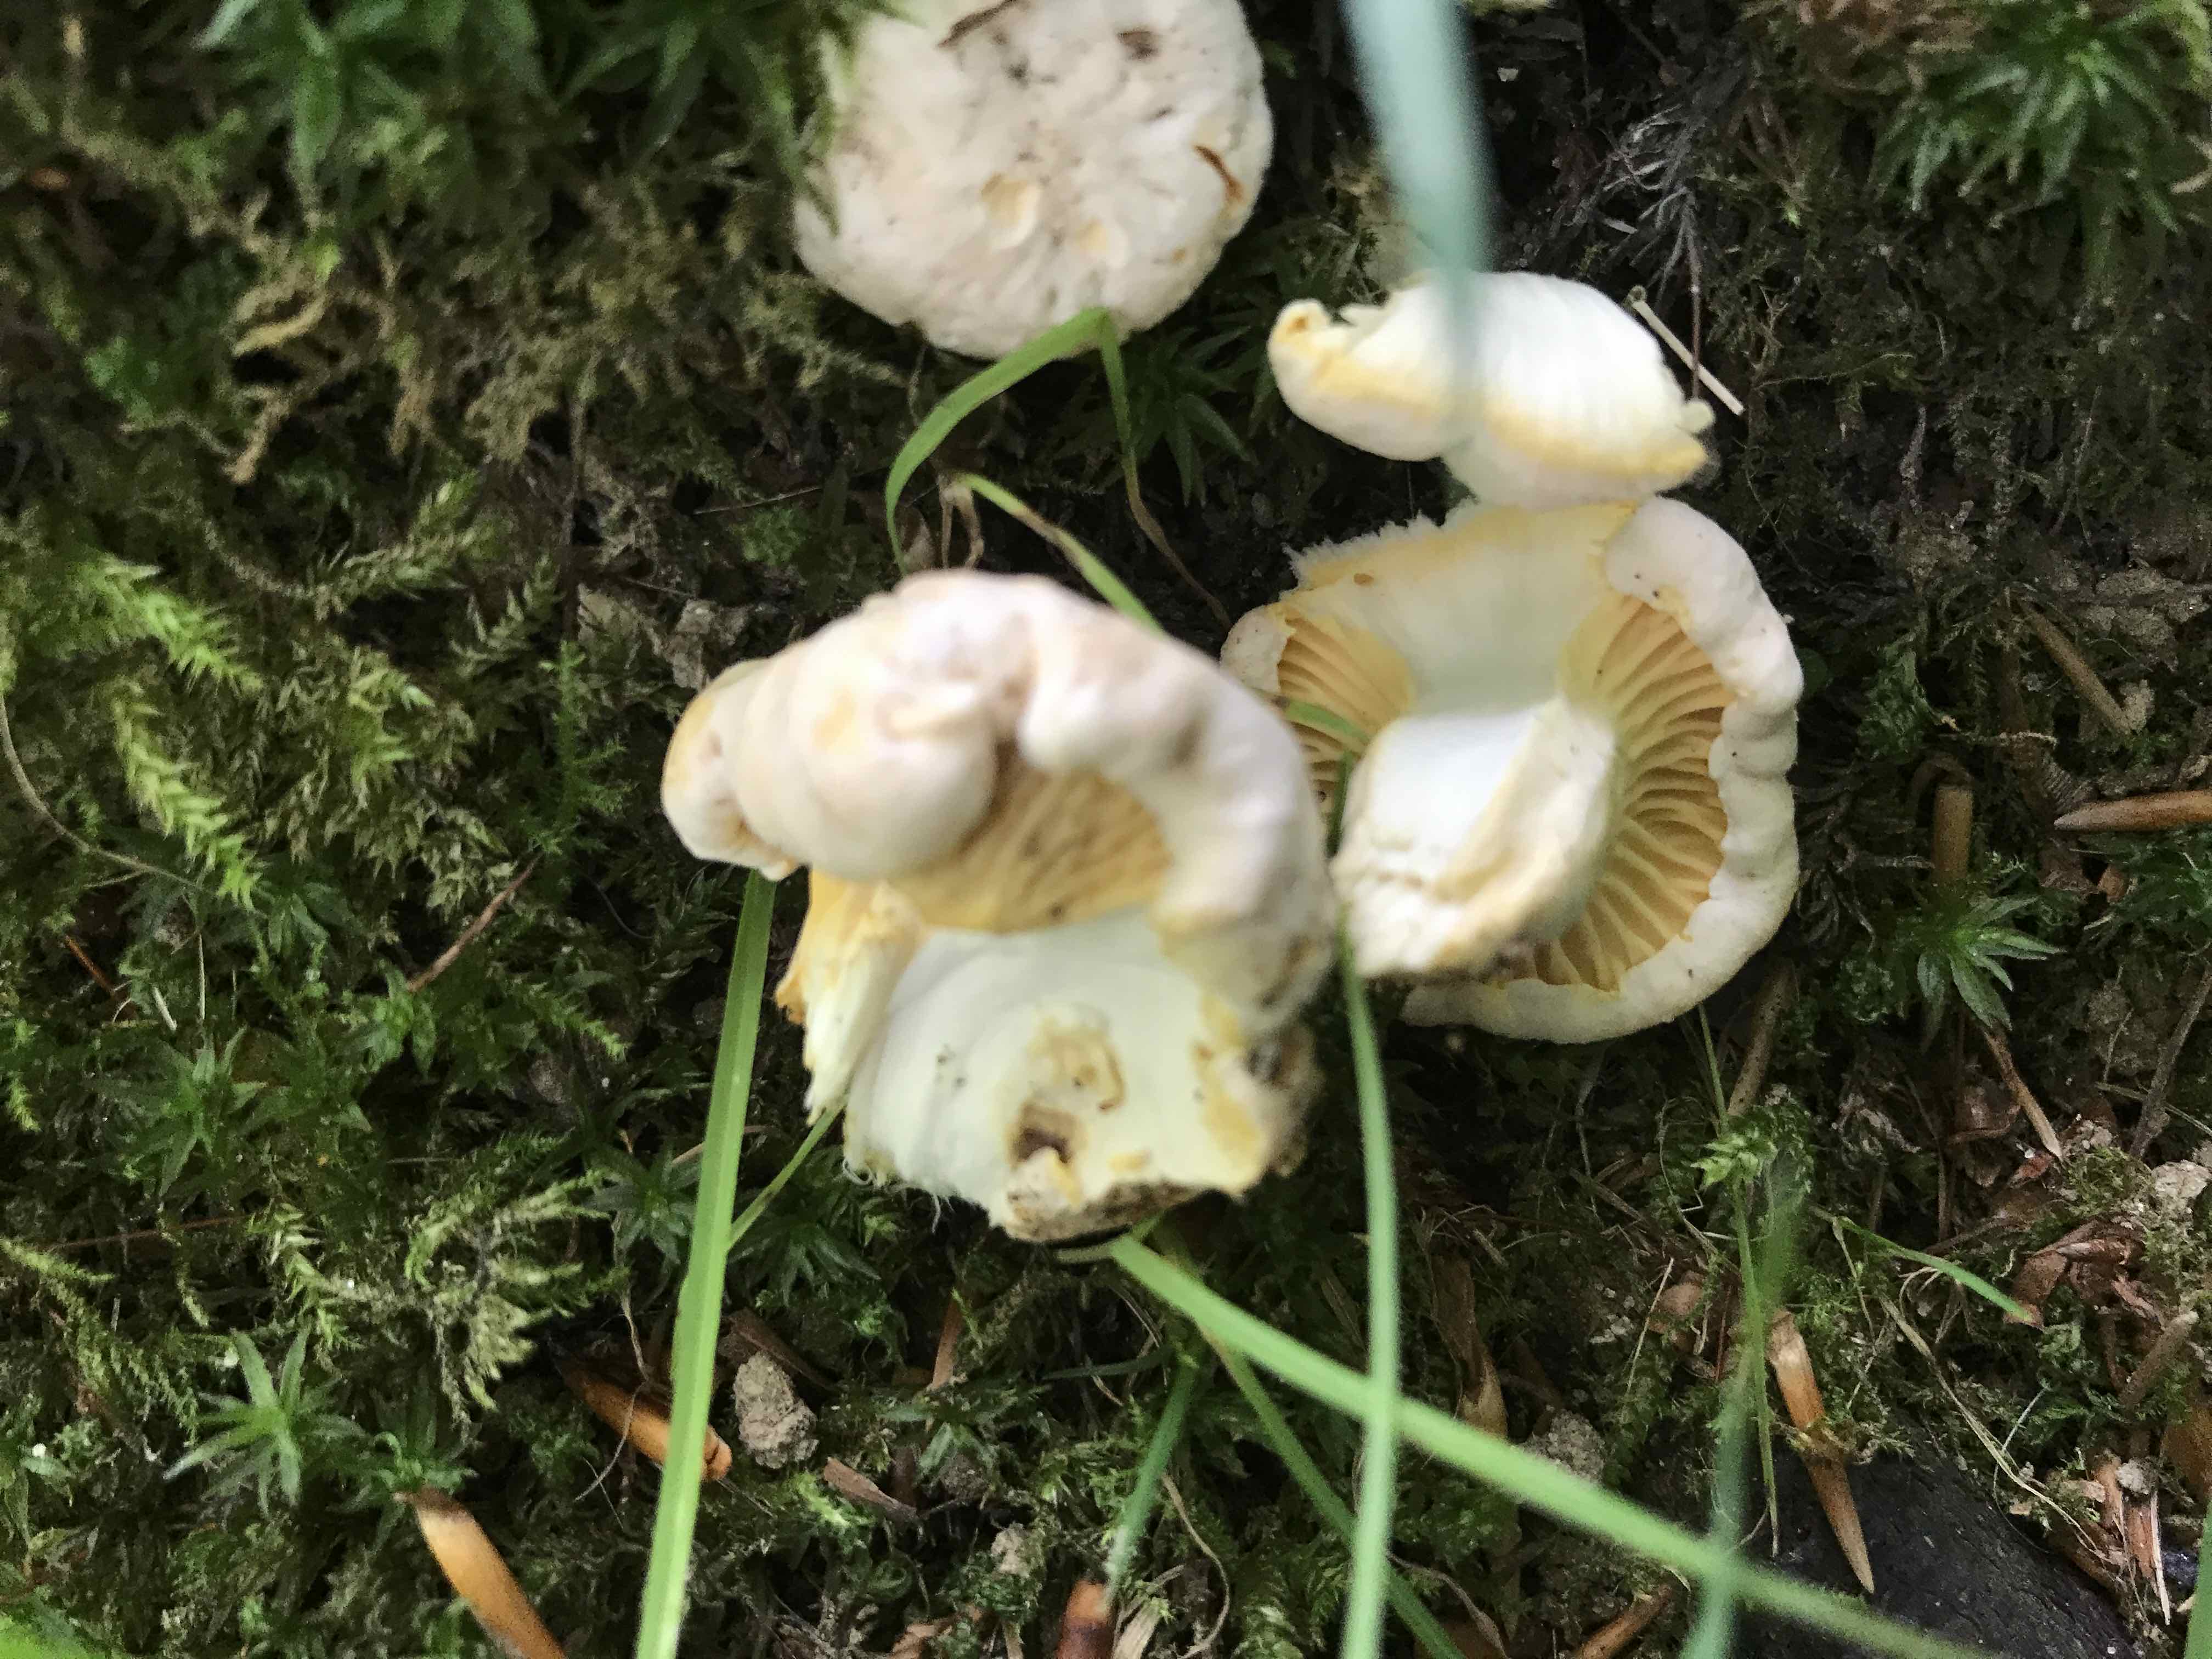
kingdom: Fungi
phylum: Basidiomycota
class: Agaricomycetes
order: Cantharellales
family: Hydnaceae
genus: Cantharellus
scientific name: Cantharellus pallens
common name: bleg kantarel
